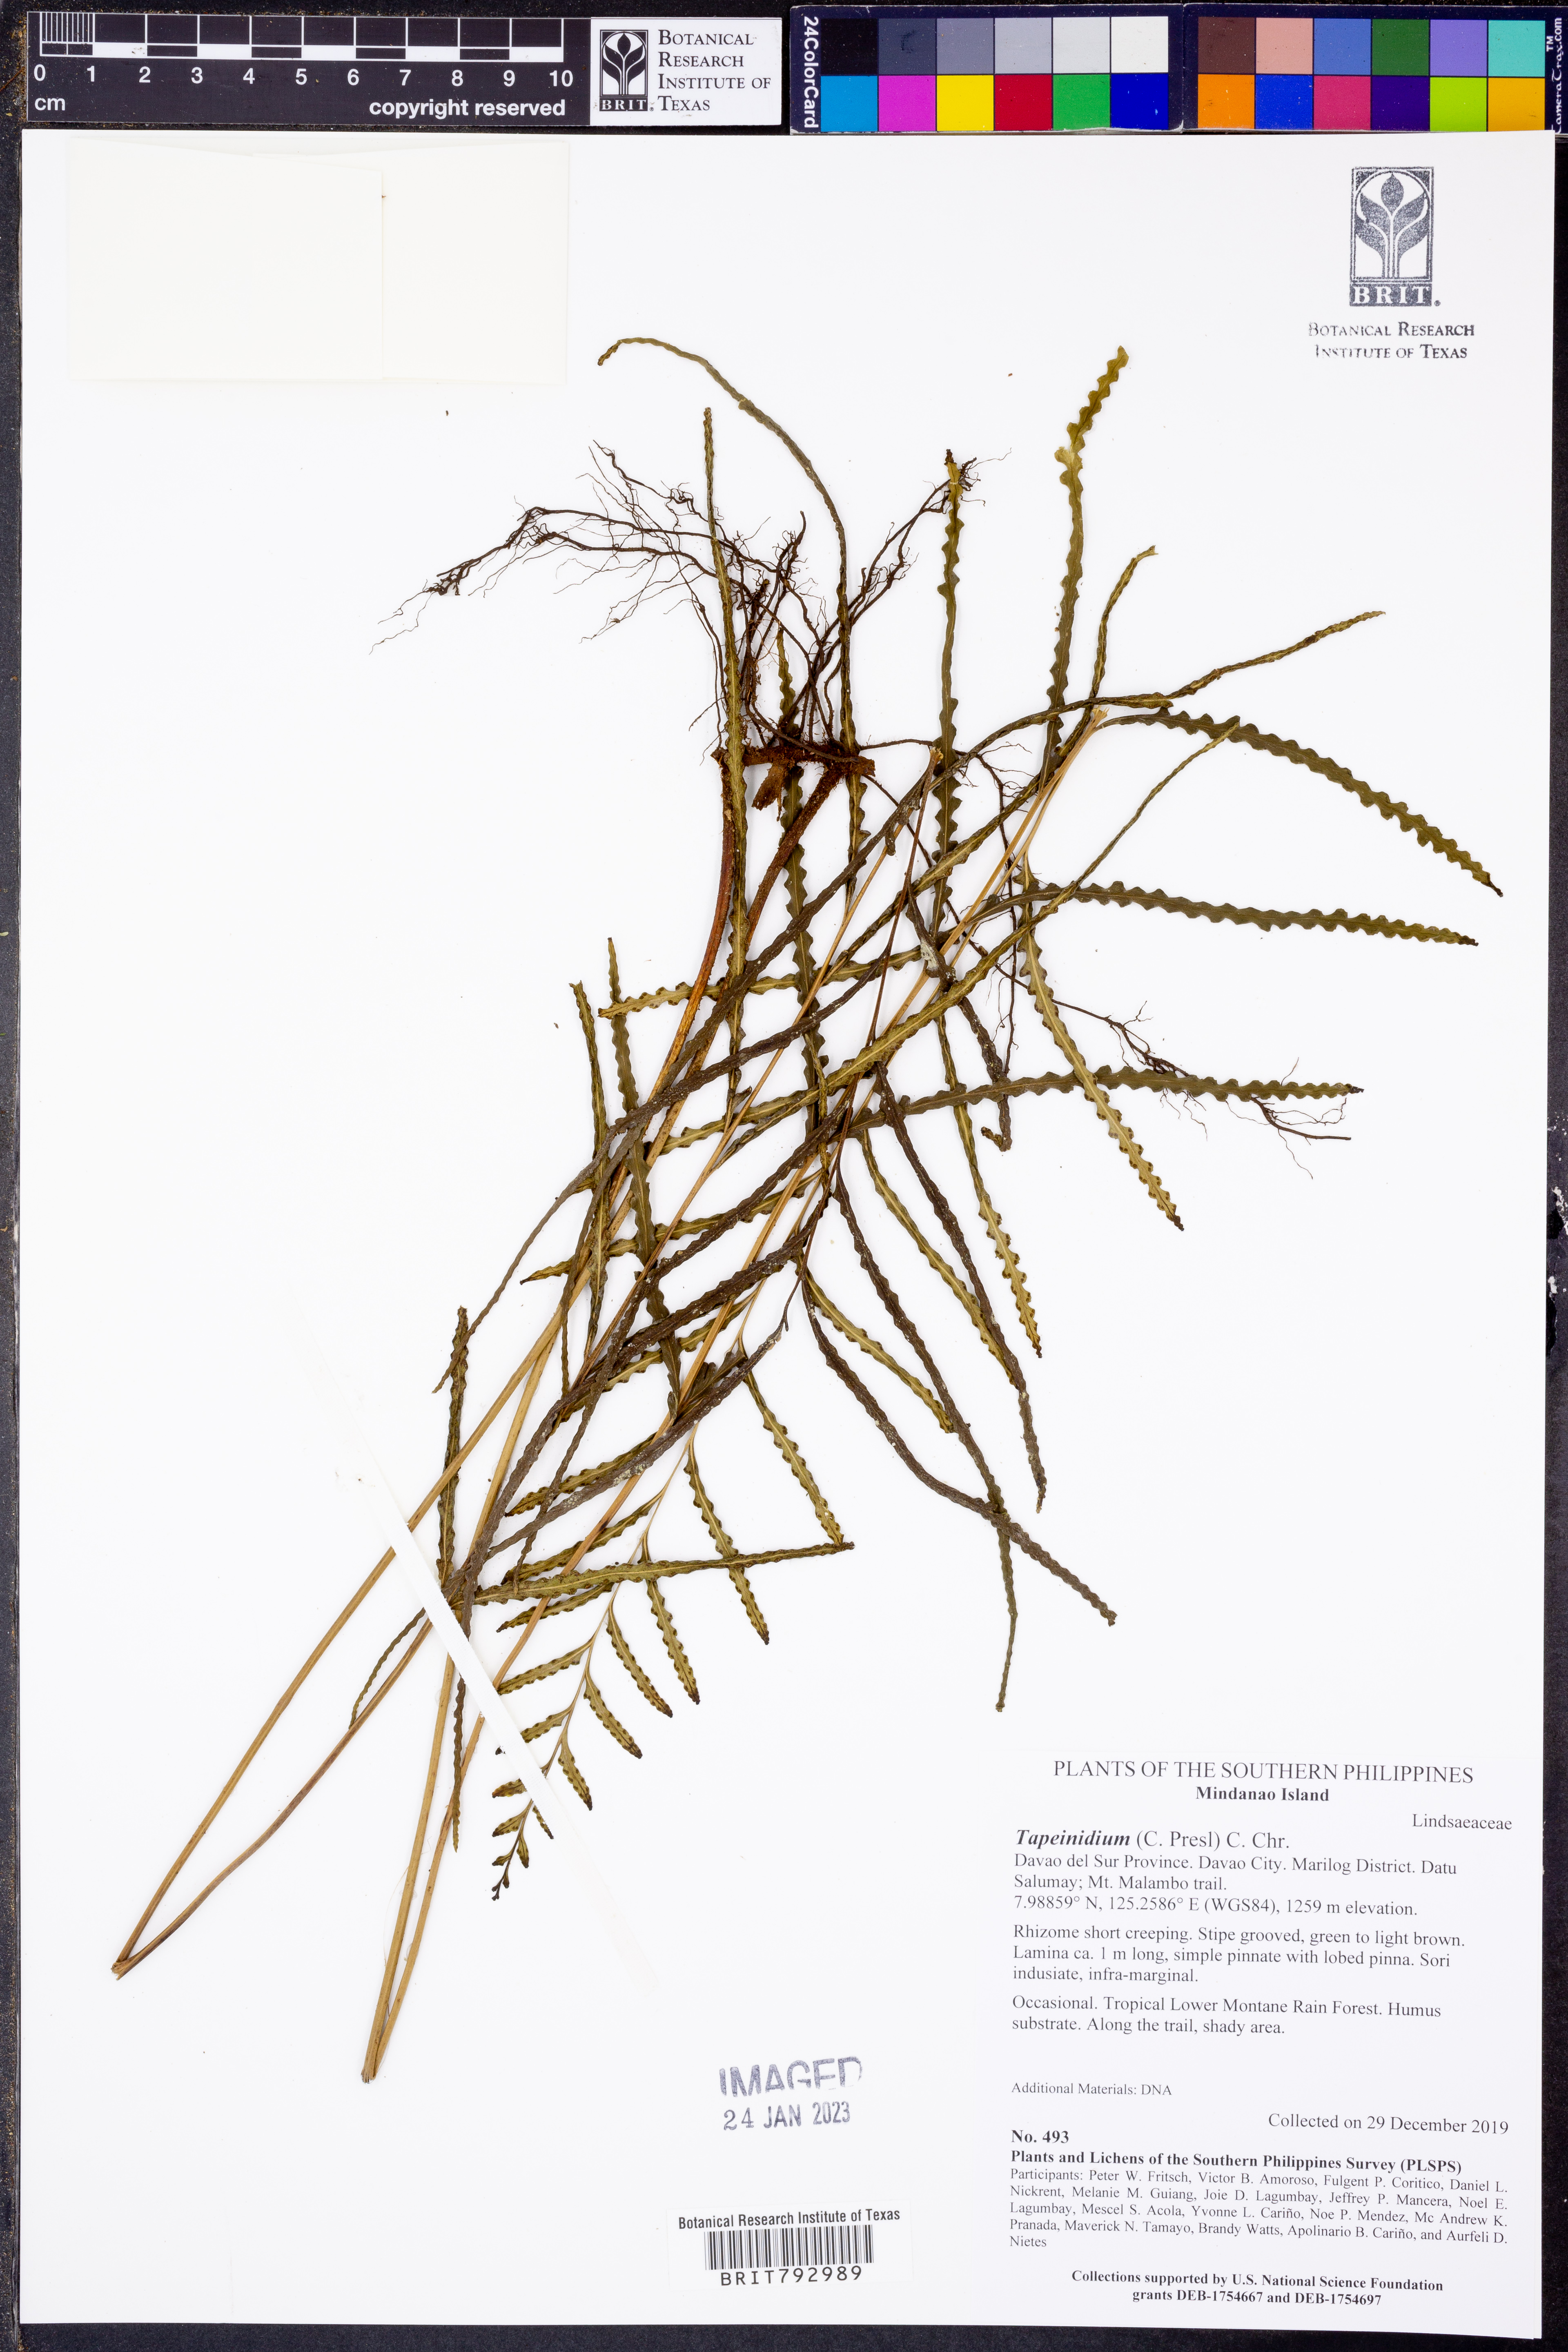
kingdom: Plantae
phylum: Tracheophyta
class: Polypodiopsida
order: Polypodiales
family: Lindsaeaceae
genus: Tapeinidium
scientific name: Tapeinidium
